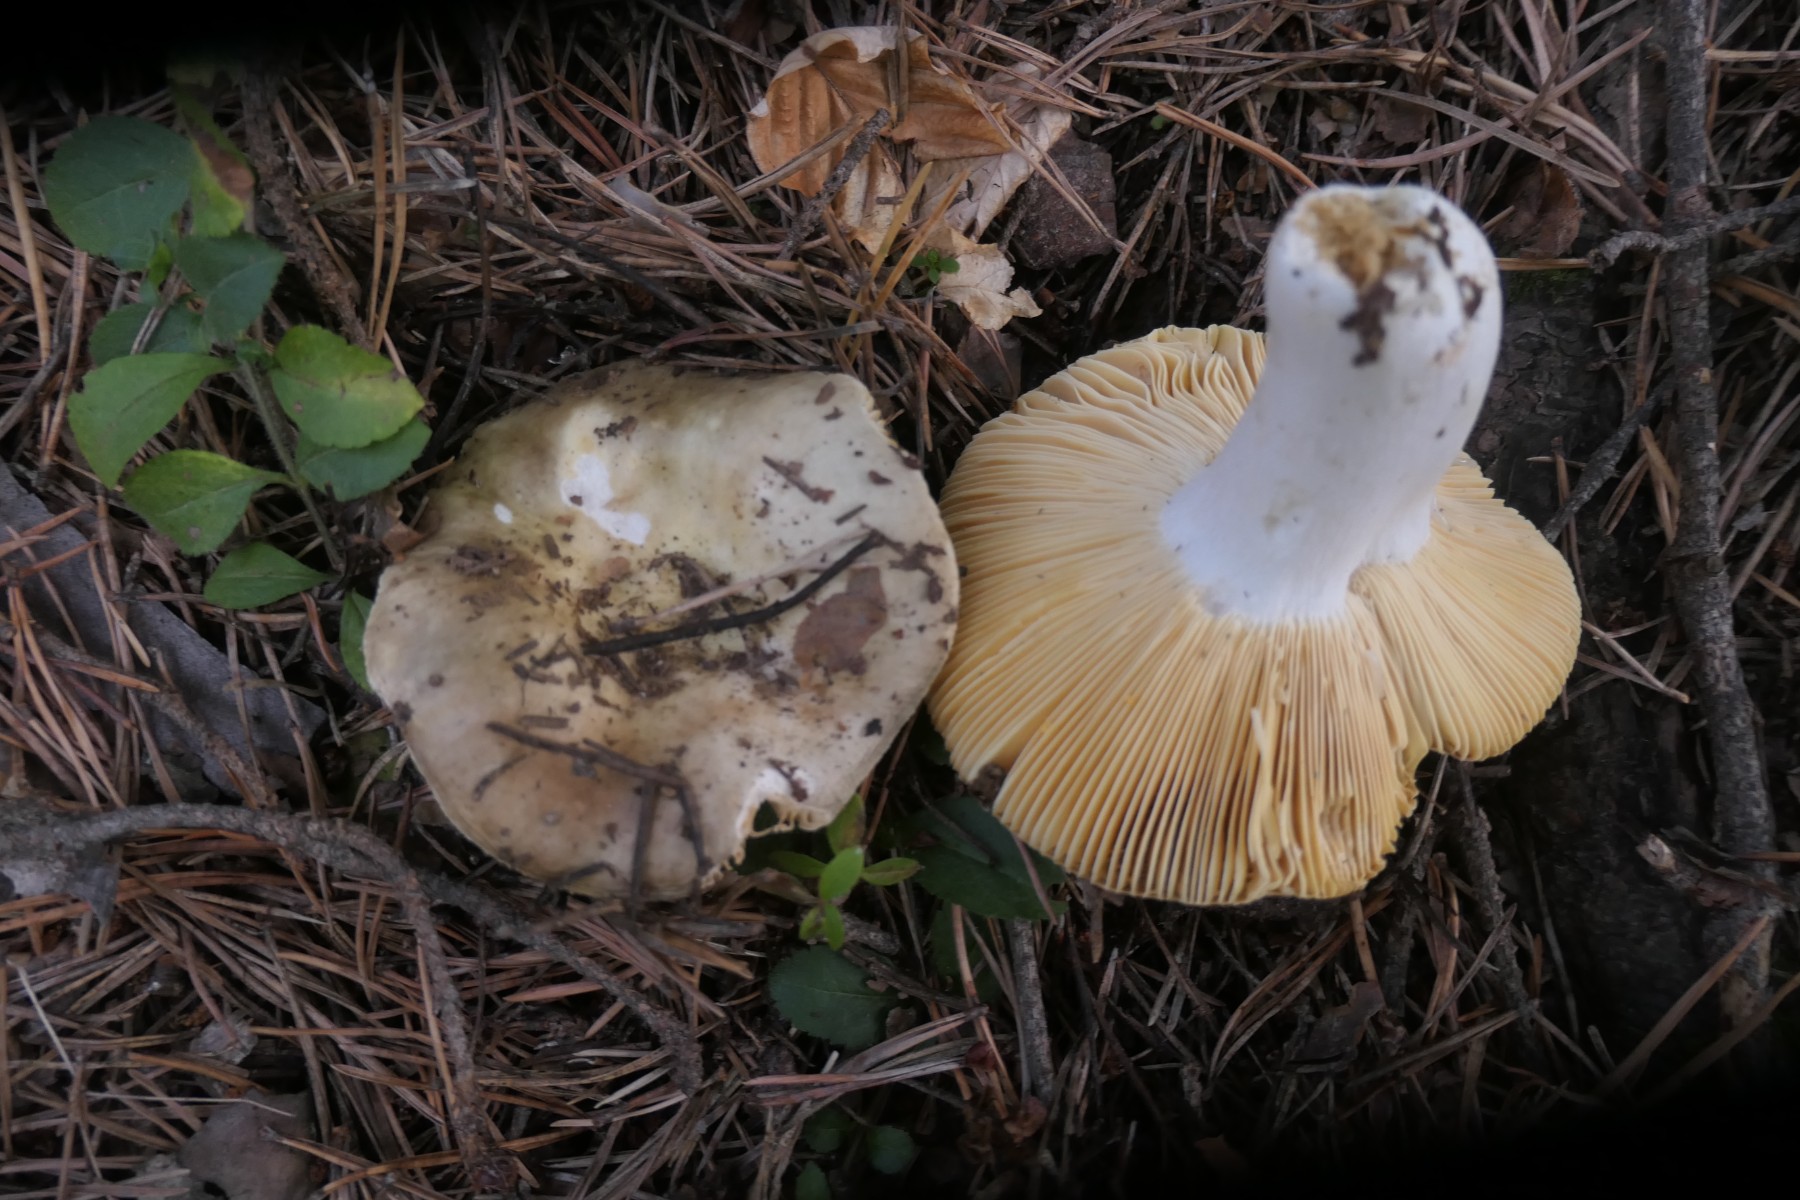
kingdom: Fungi
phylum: Basidiomycota
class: Agaricomycetes
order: Russulales
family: Russulaceae
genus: Russula
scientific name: Russula integra
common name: mandel-skørhat
